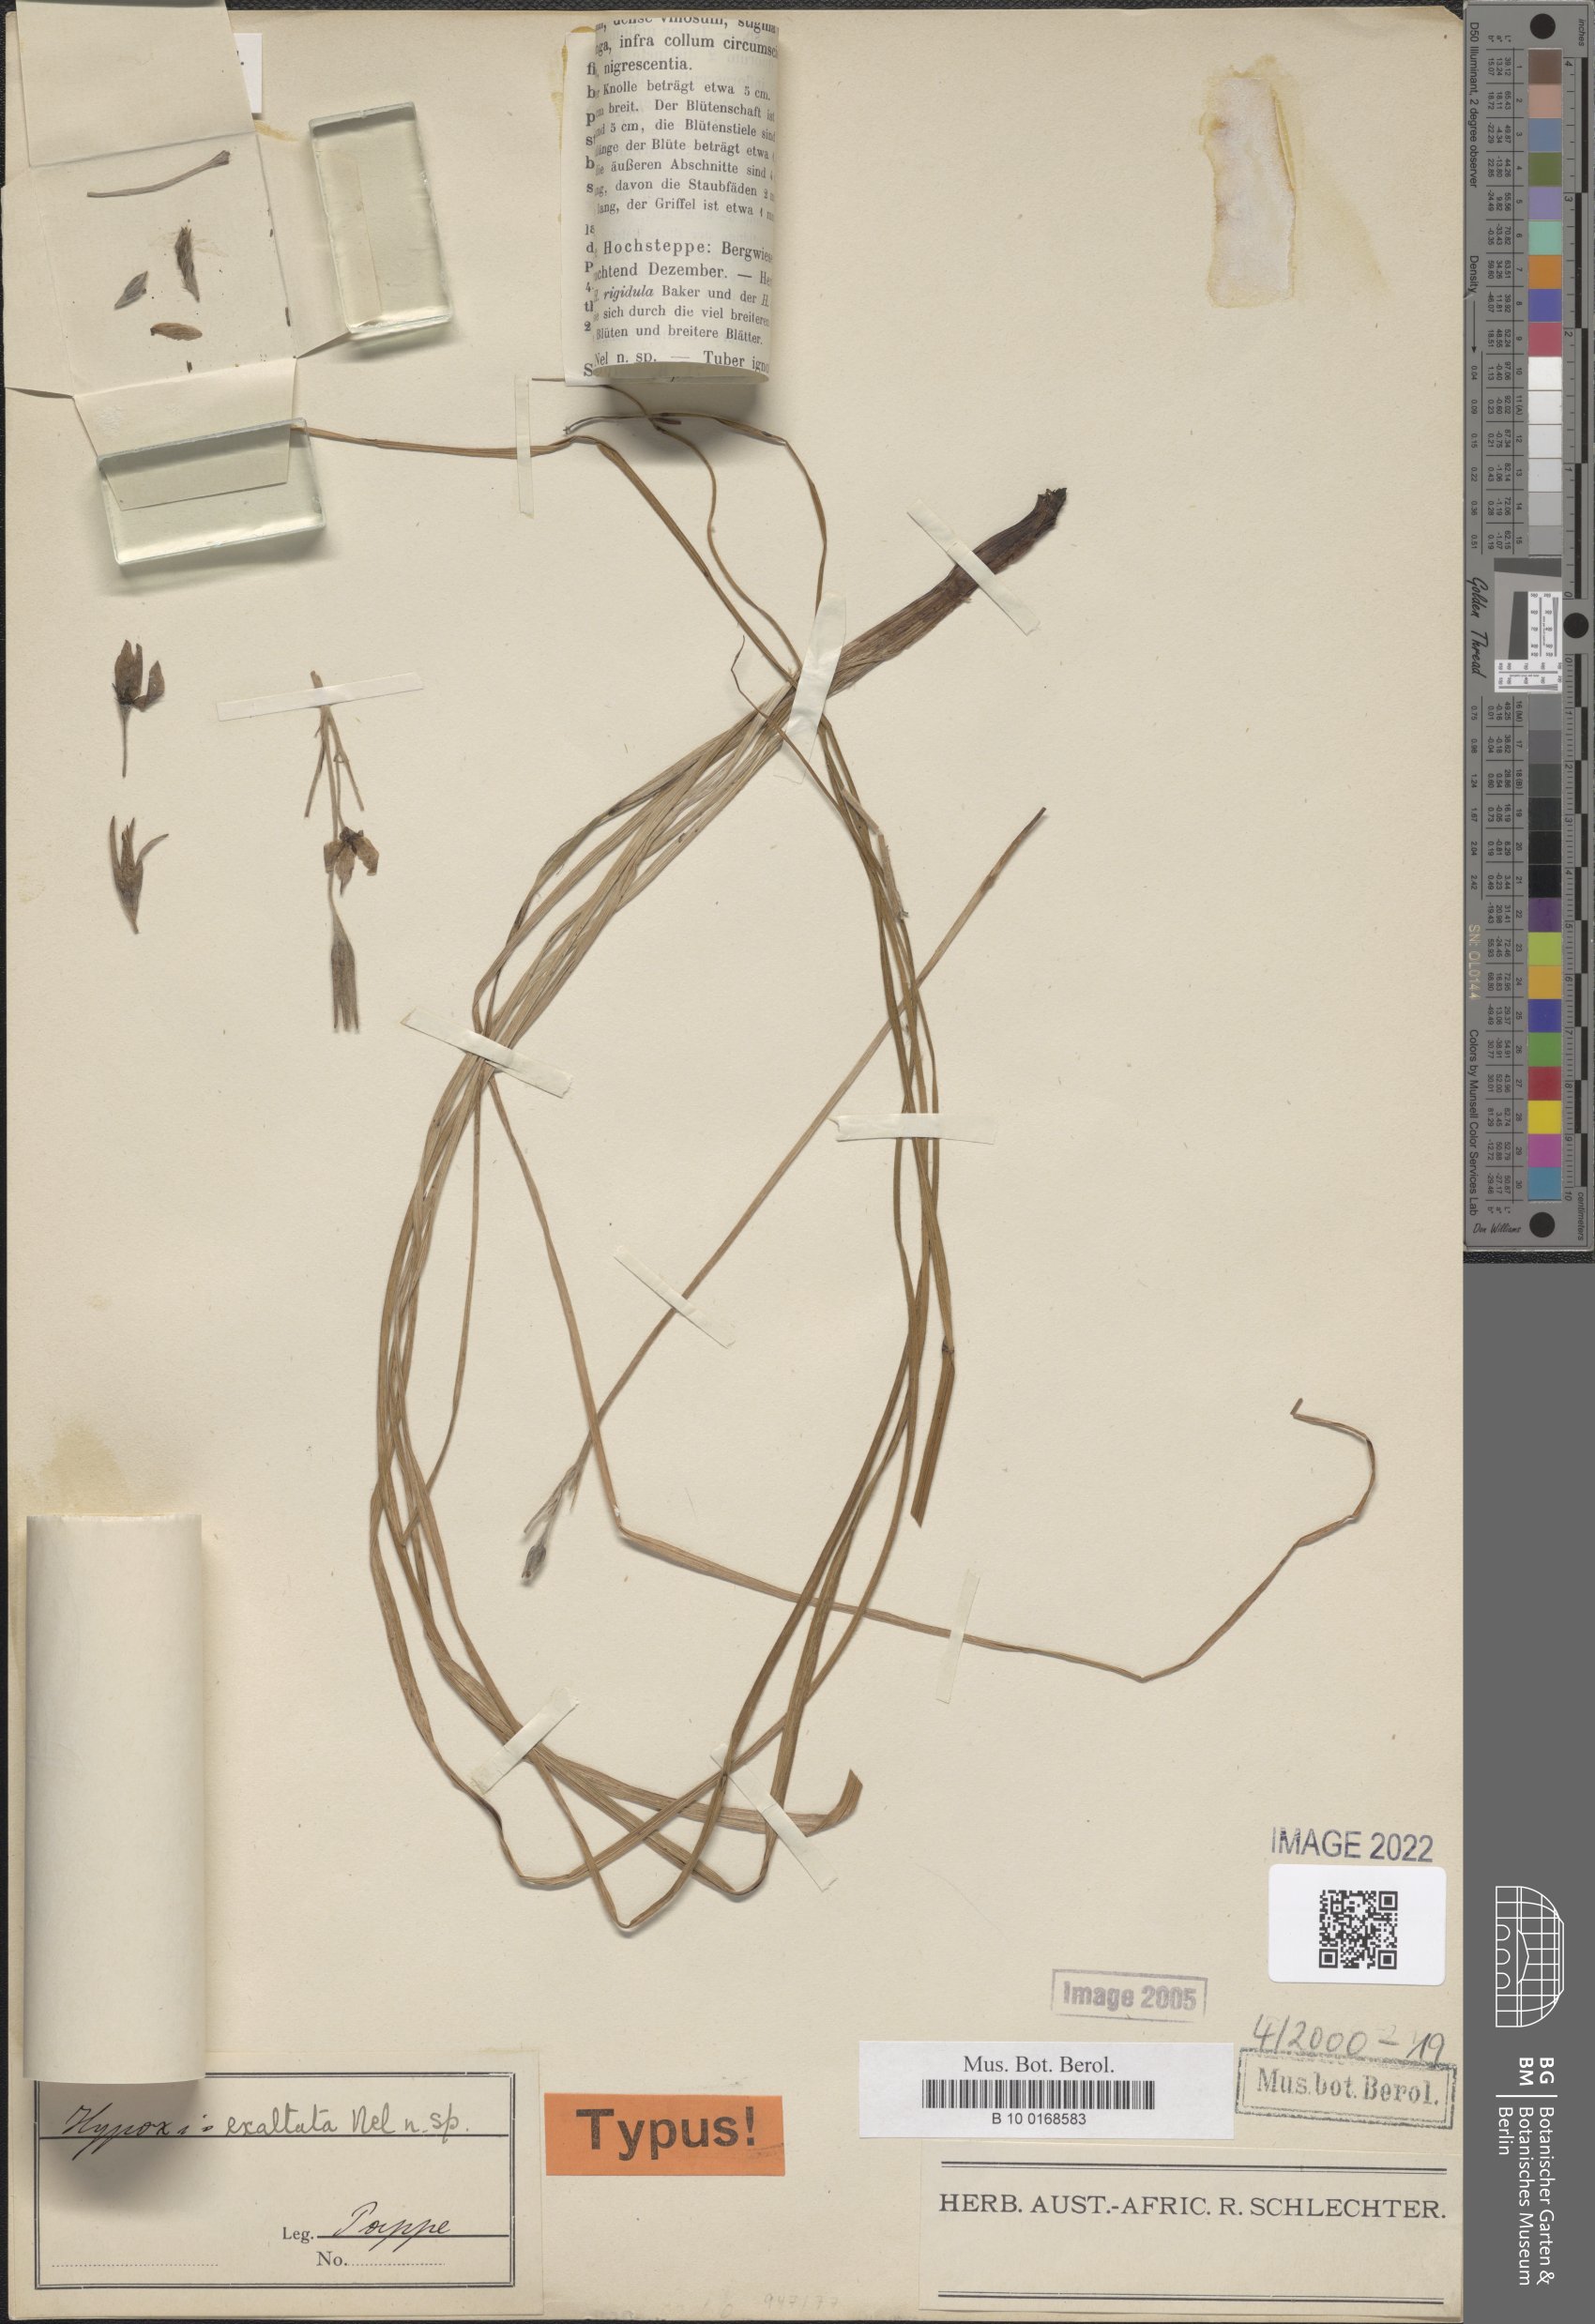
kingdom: Plantae
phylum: Tracheophyta
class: Liliopsida
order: Asparagales
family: Hypoxidaceae
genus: Hypoxis
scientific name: Hypoxis exaltata
